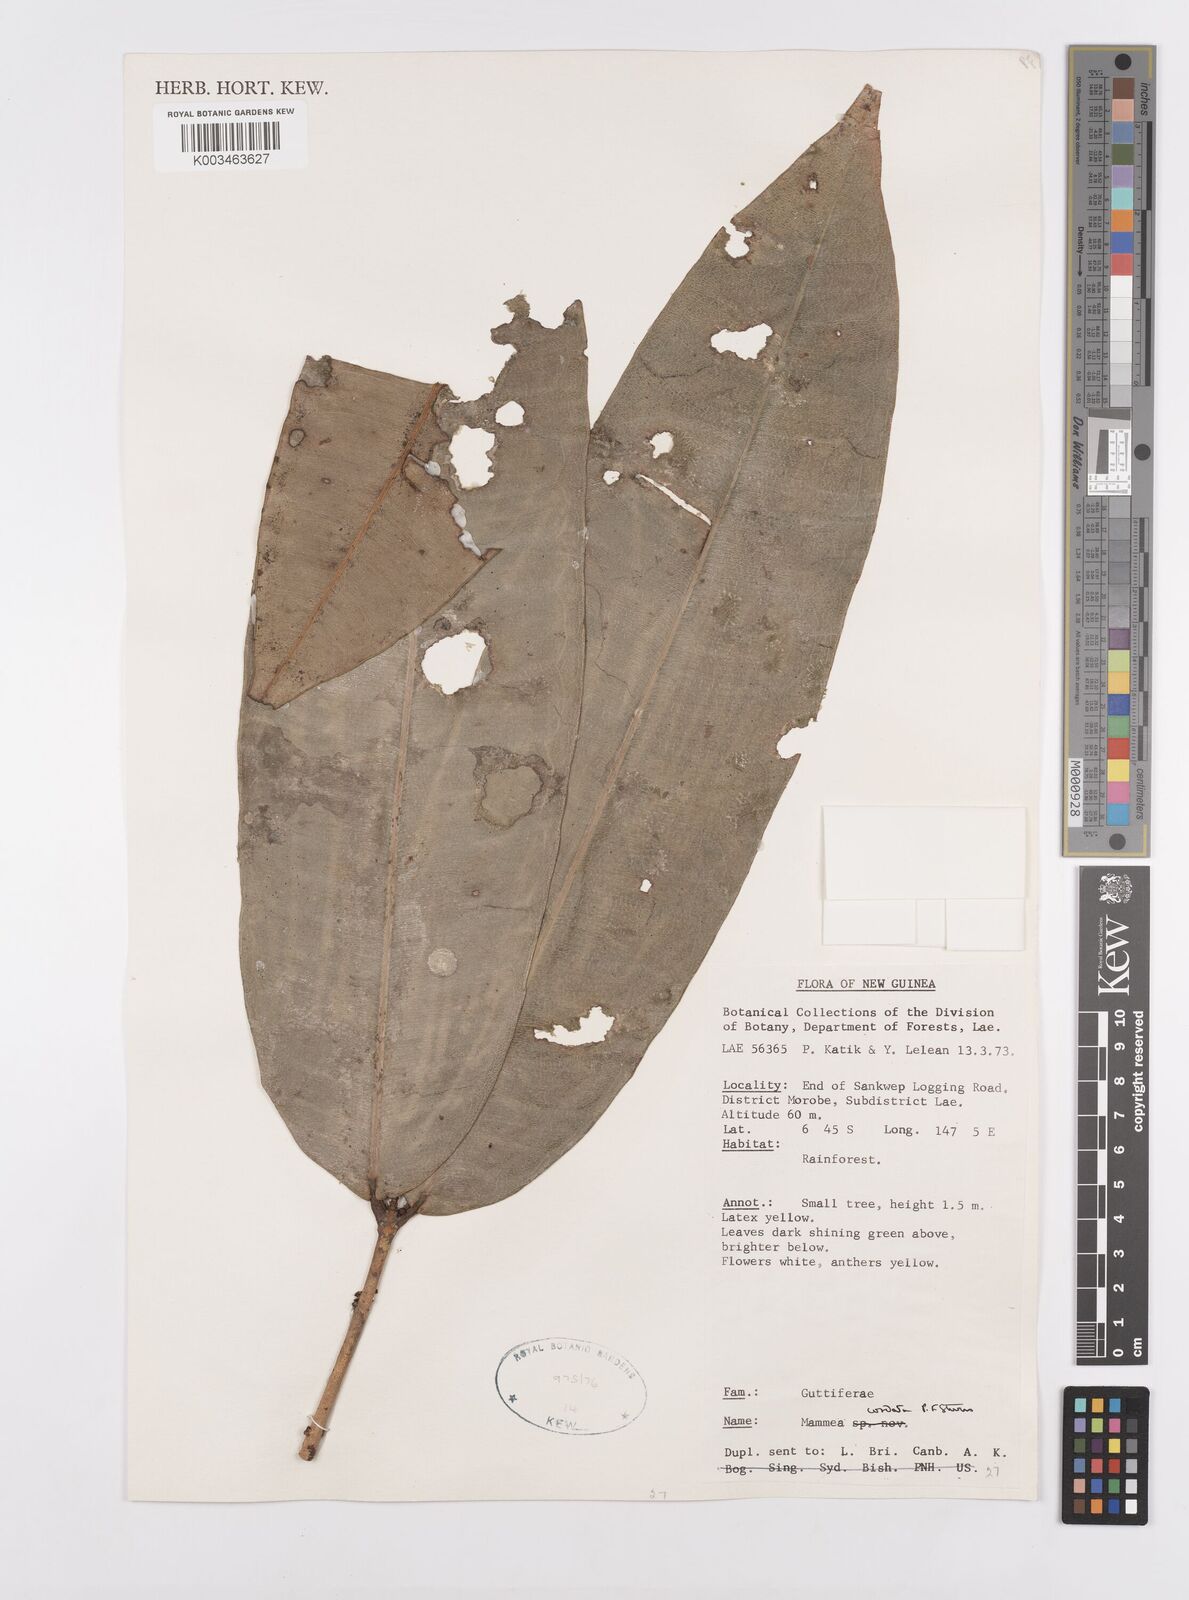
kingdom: Plantae
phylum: Tracheophyta
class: Magnoliopsida
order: Malpighiales
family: Calophyllaceae
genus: Mammea
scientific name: Mammea cordata
